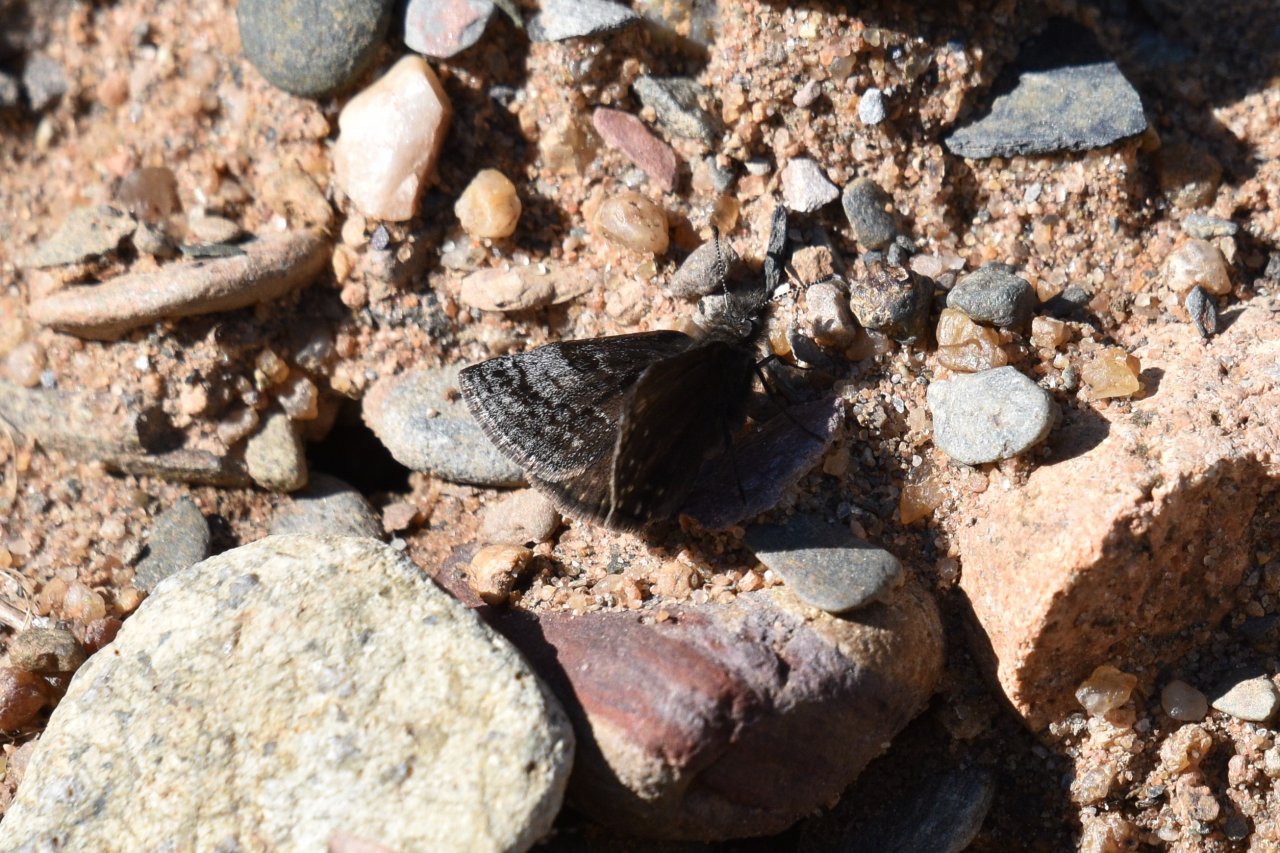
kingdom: Animalia
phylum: Arthropoda
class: Insecta
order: Lepidoptera
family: Hesperiidae
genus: Erynnis
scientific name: Erynnis icelus
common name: Dreamy Duskywing
